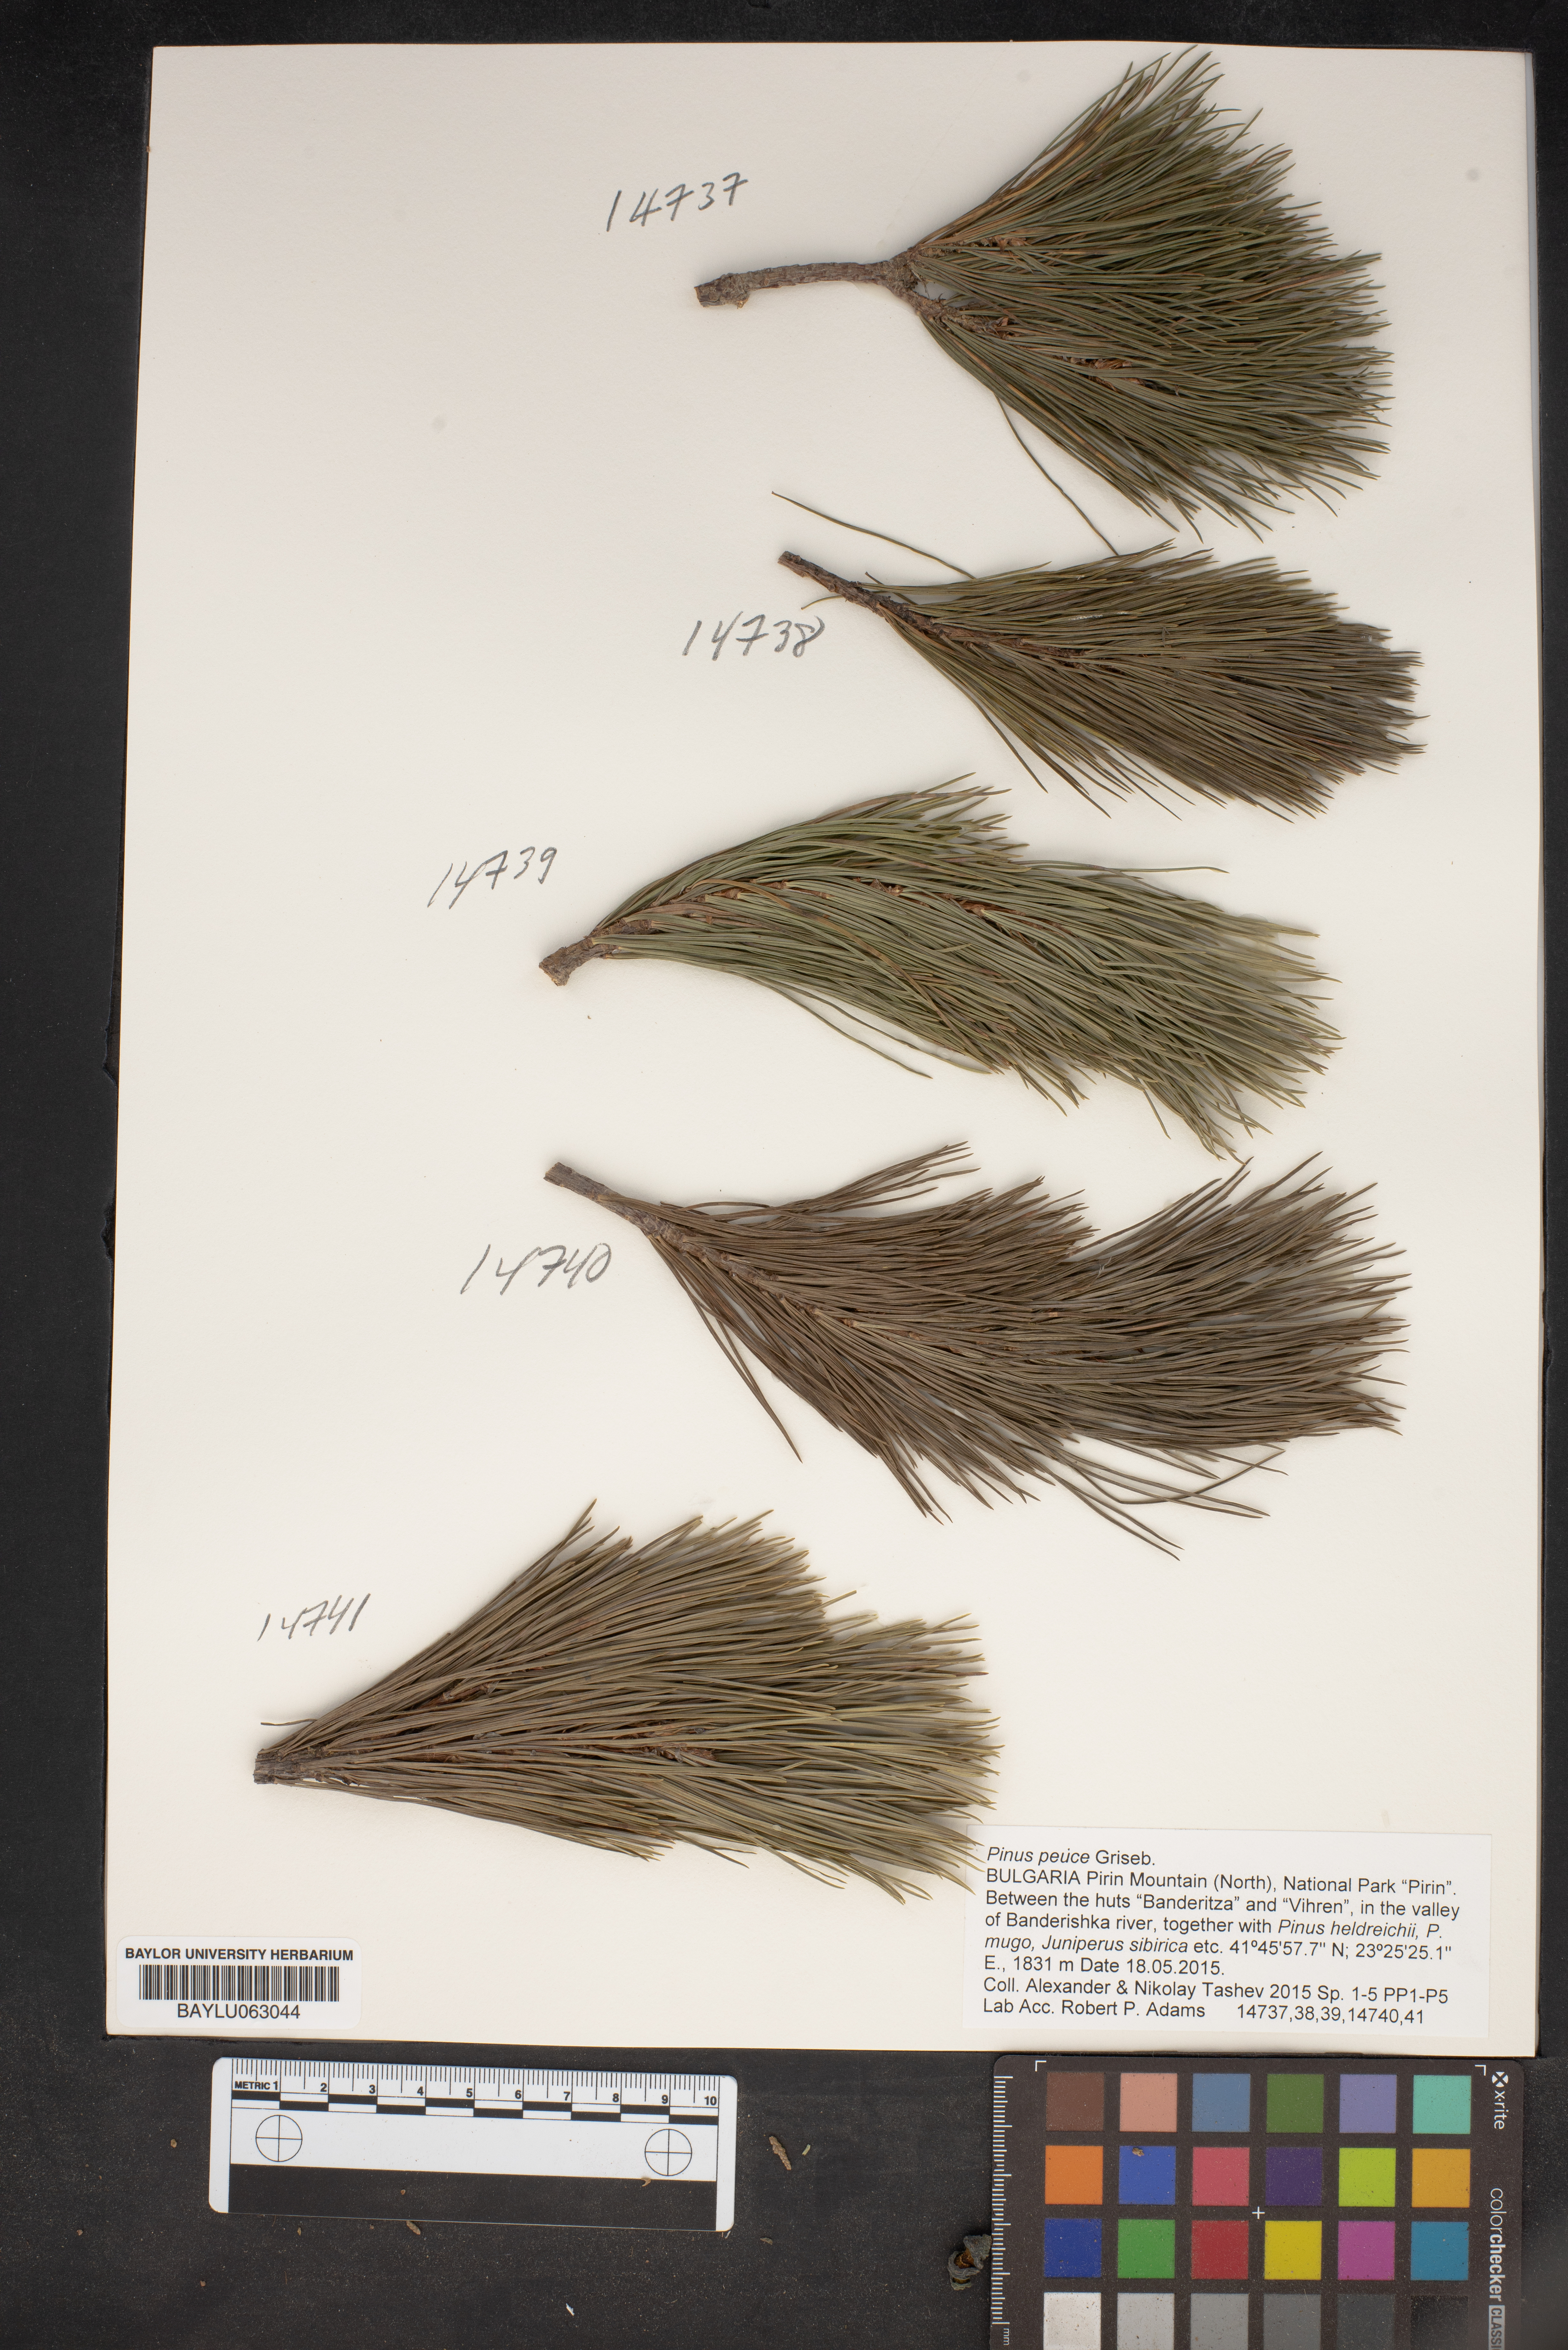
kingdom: Plantae
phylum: Tracheophyta
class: Pinopsida
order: Pinales
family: Pinaceae
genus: Pinus
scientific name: Pinus peuce
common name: Macedonian pine
